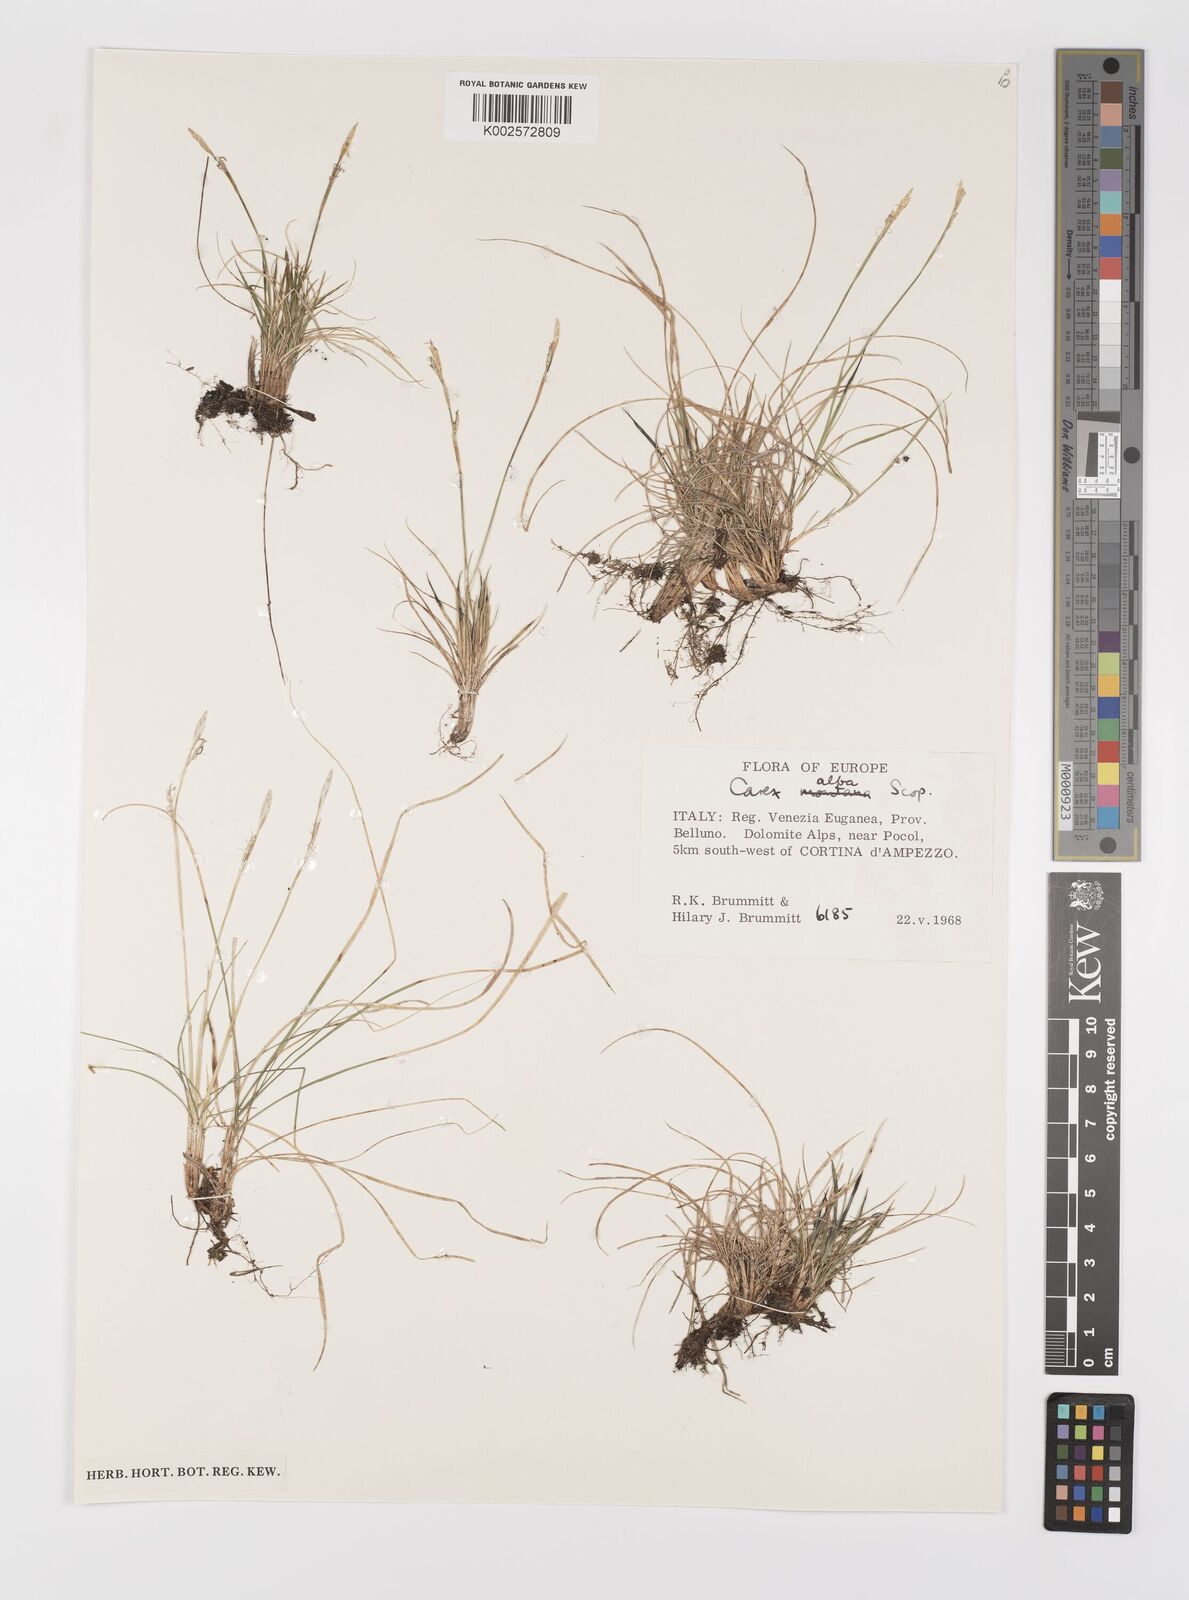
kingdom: Plantae
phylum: Tracheophyta
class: Liliopsida
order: Poales
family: Cyperaceae
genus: Carex
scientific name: Carex alba
